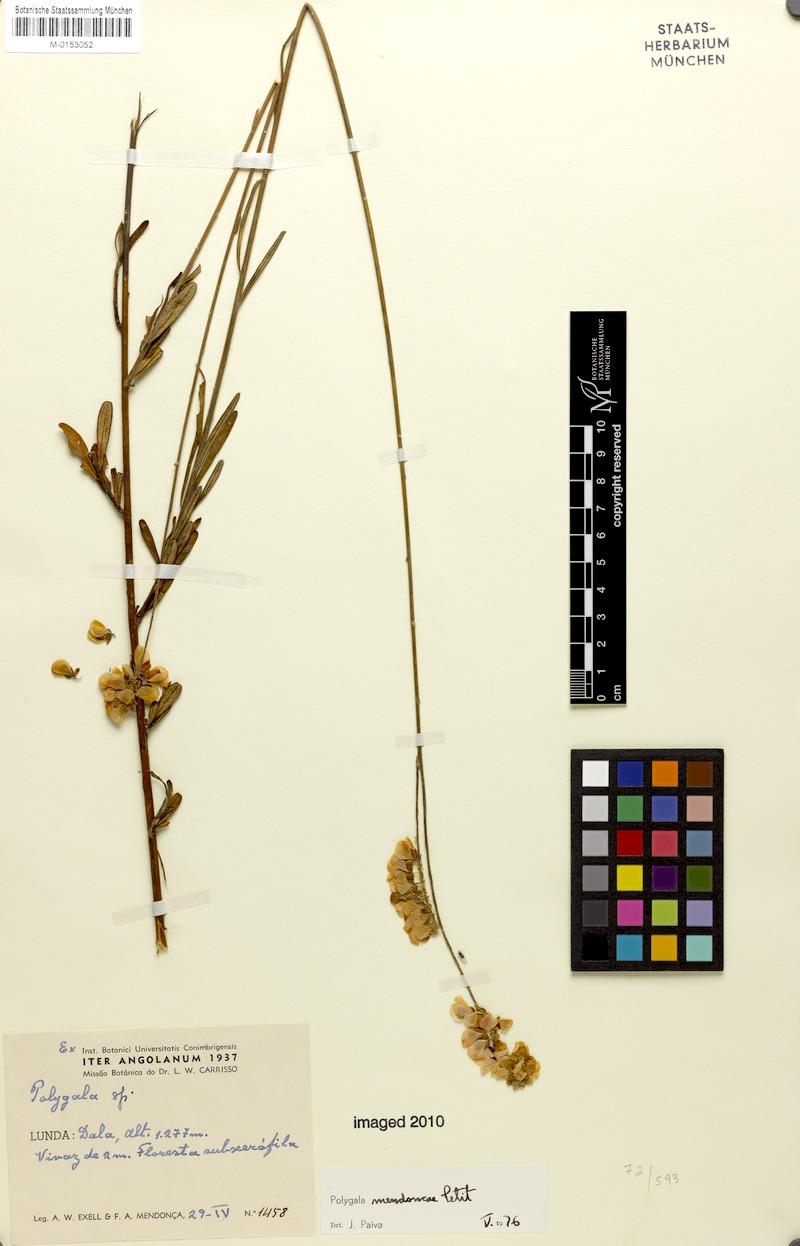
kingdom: Plantae
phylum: Tracheophyta
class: Magnoliopsida
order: Fabales
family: Polygalaceae
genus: Polygala
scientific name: Polygala mendoncae
